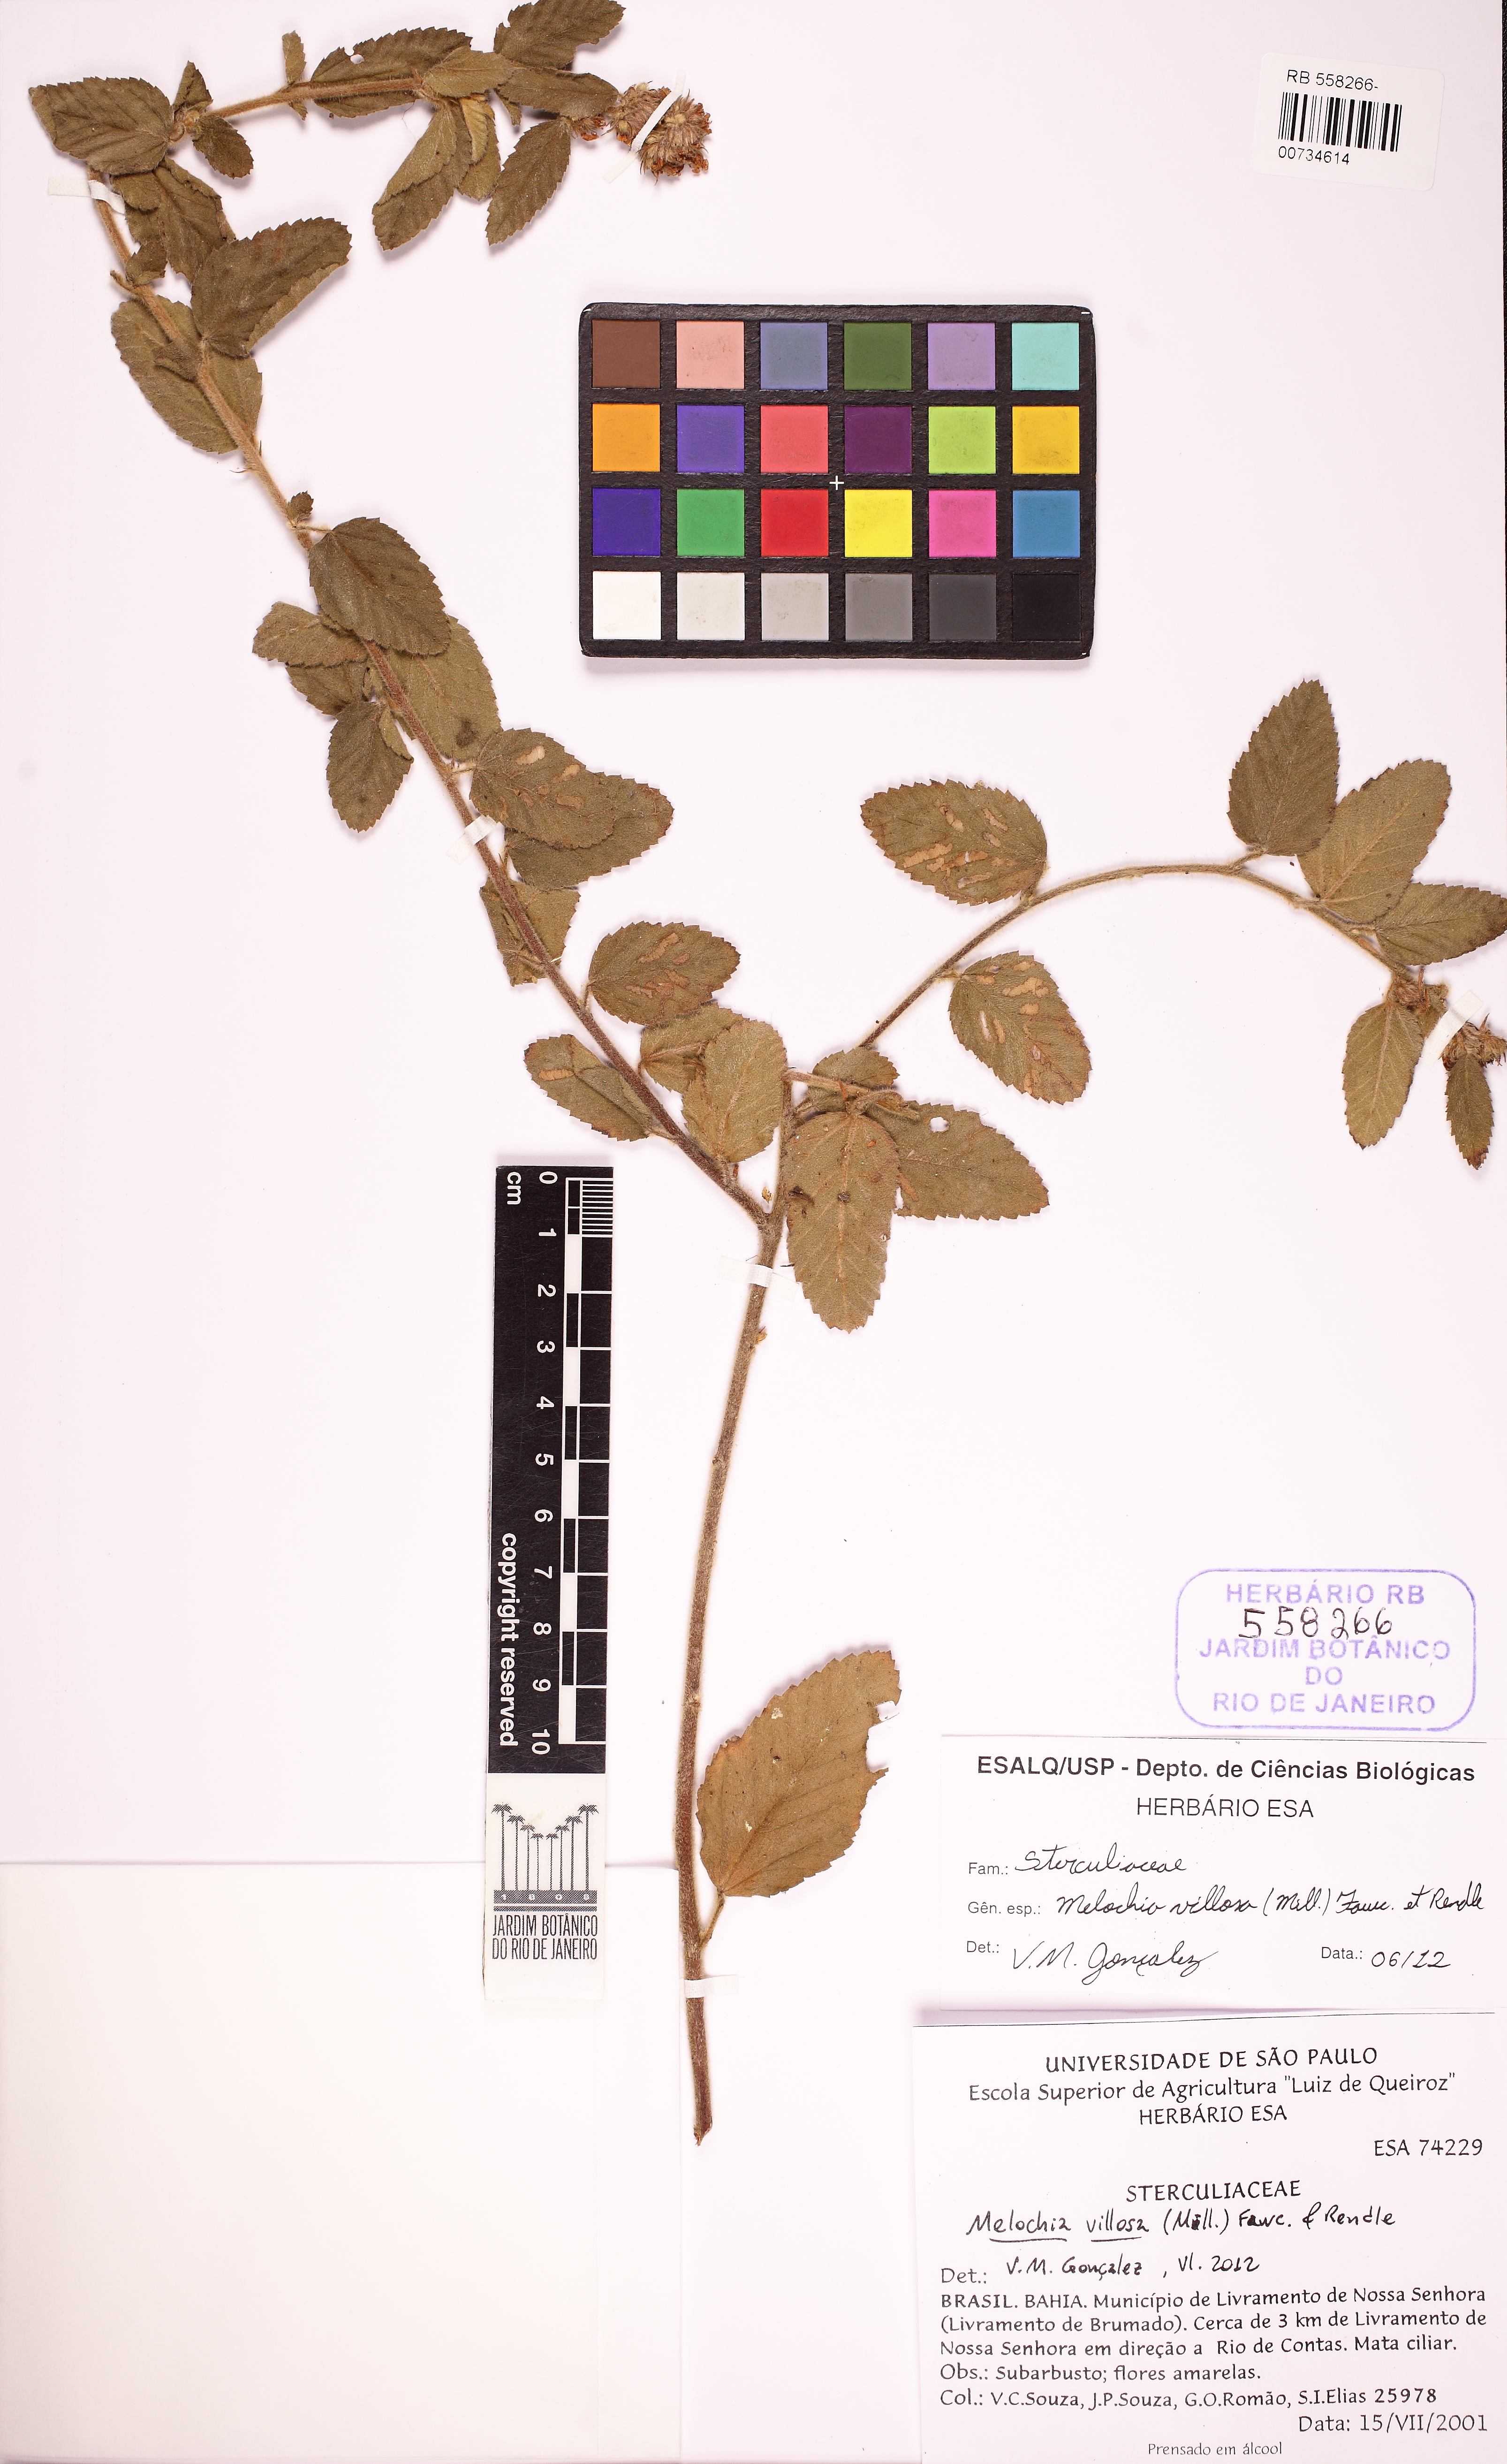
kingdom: Plantae
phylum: Tracheophyta
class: Magnoliopsida
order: Malvales
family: Malvaceae
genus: Melochia
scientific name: Melochia spicata
